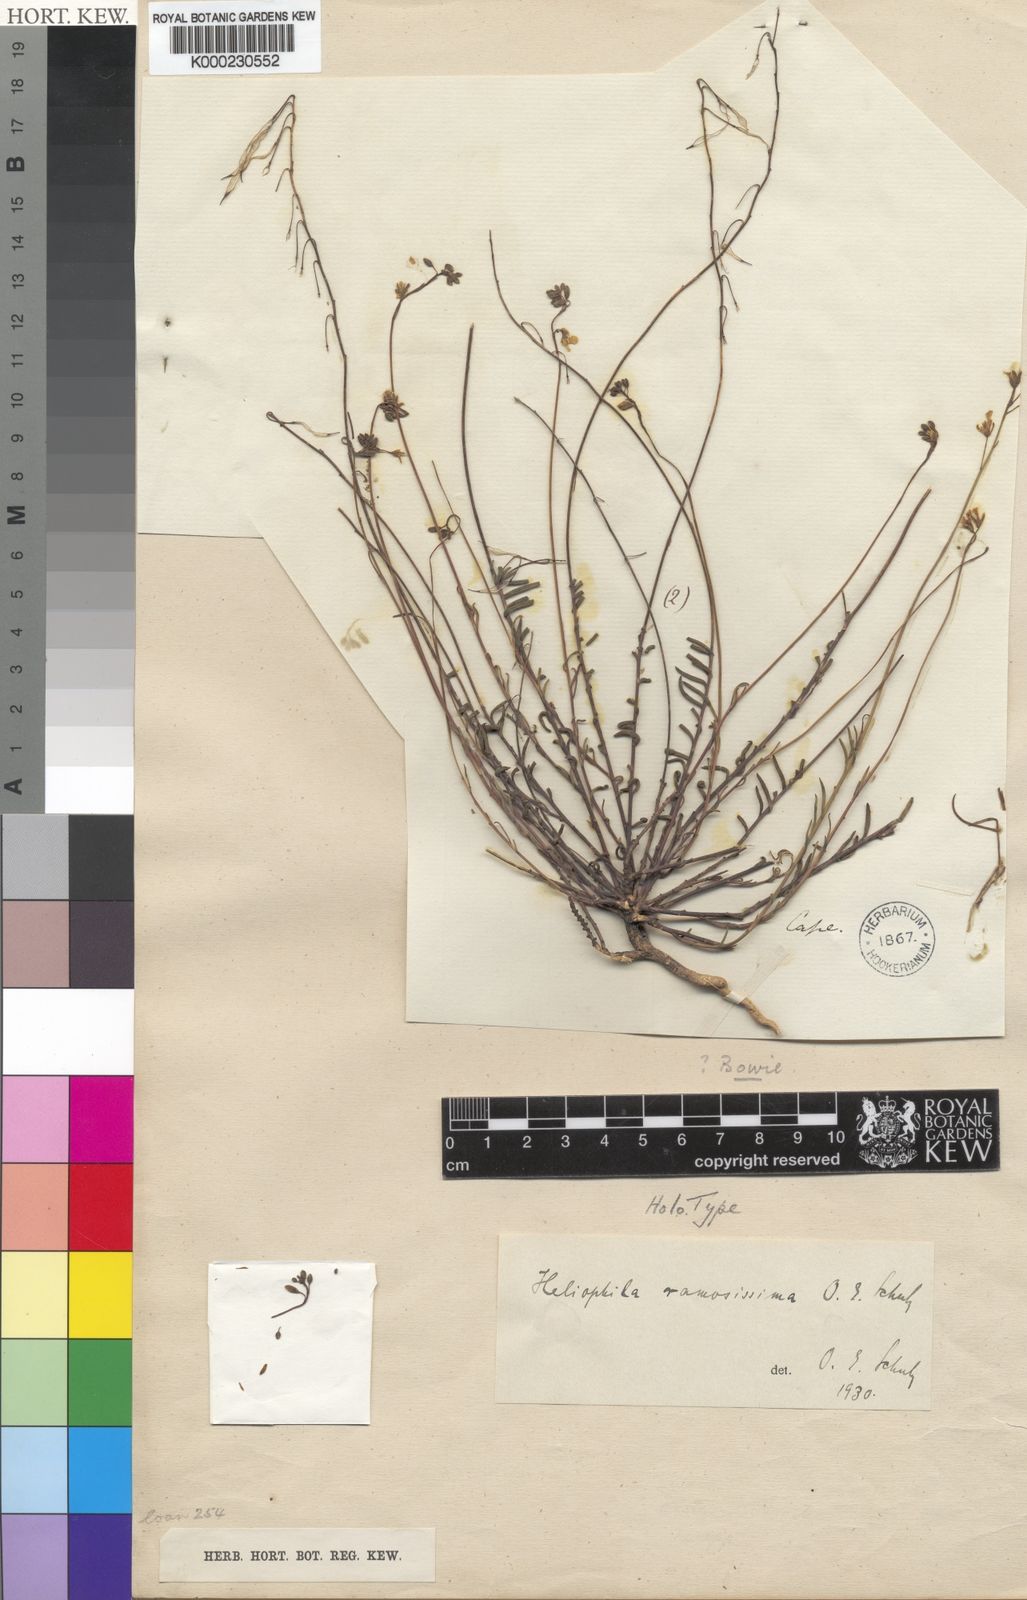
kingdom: Plantae
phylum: Tracheophyta
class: Magnoliopsida
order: Brassicales
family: Brassicaceae
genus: Heliophila
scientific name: Heliophila ramosissima
